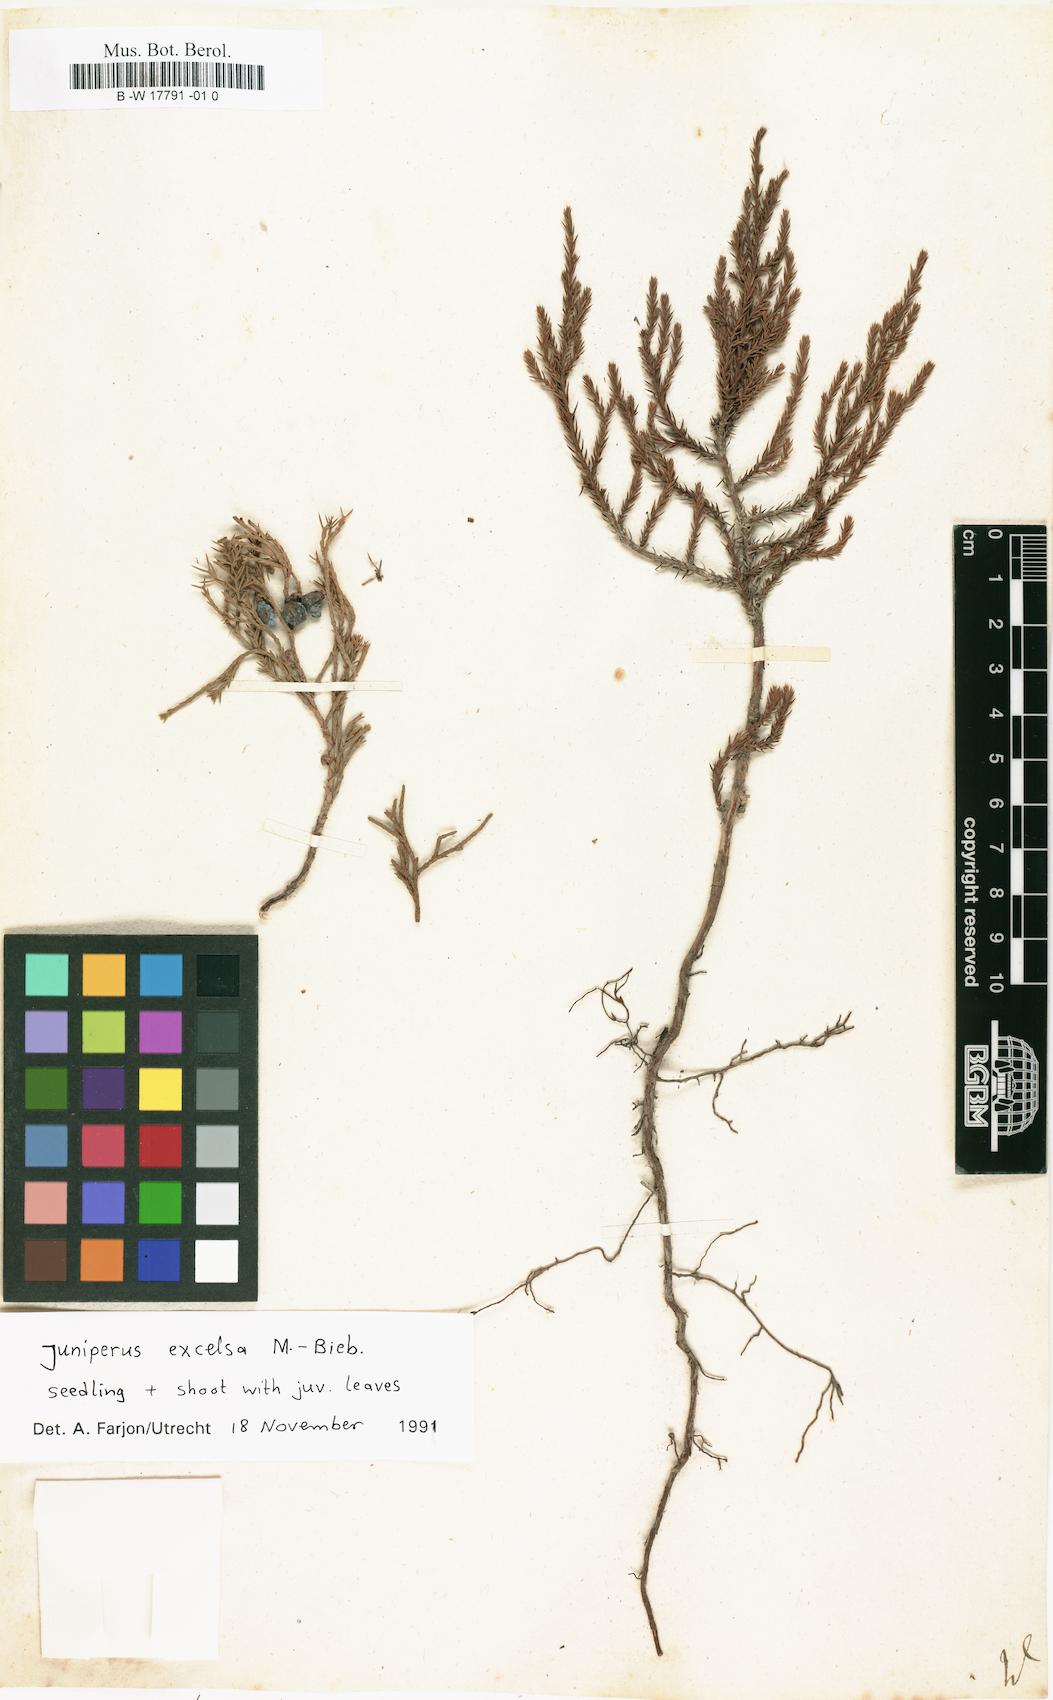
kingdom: Plantae
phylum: Tracheophyta
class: Pinopsida
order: Pinales
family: Cupressaceae
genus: Cupressus
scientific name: Cupressus
